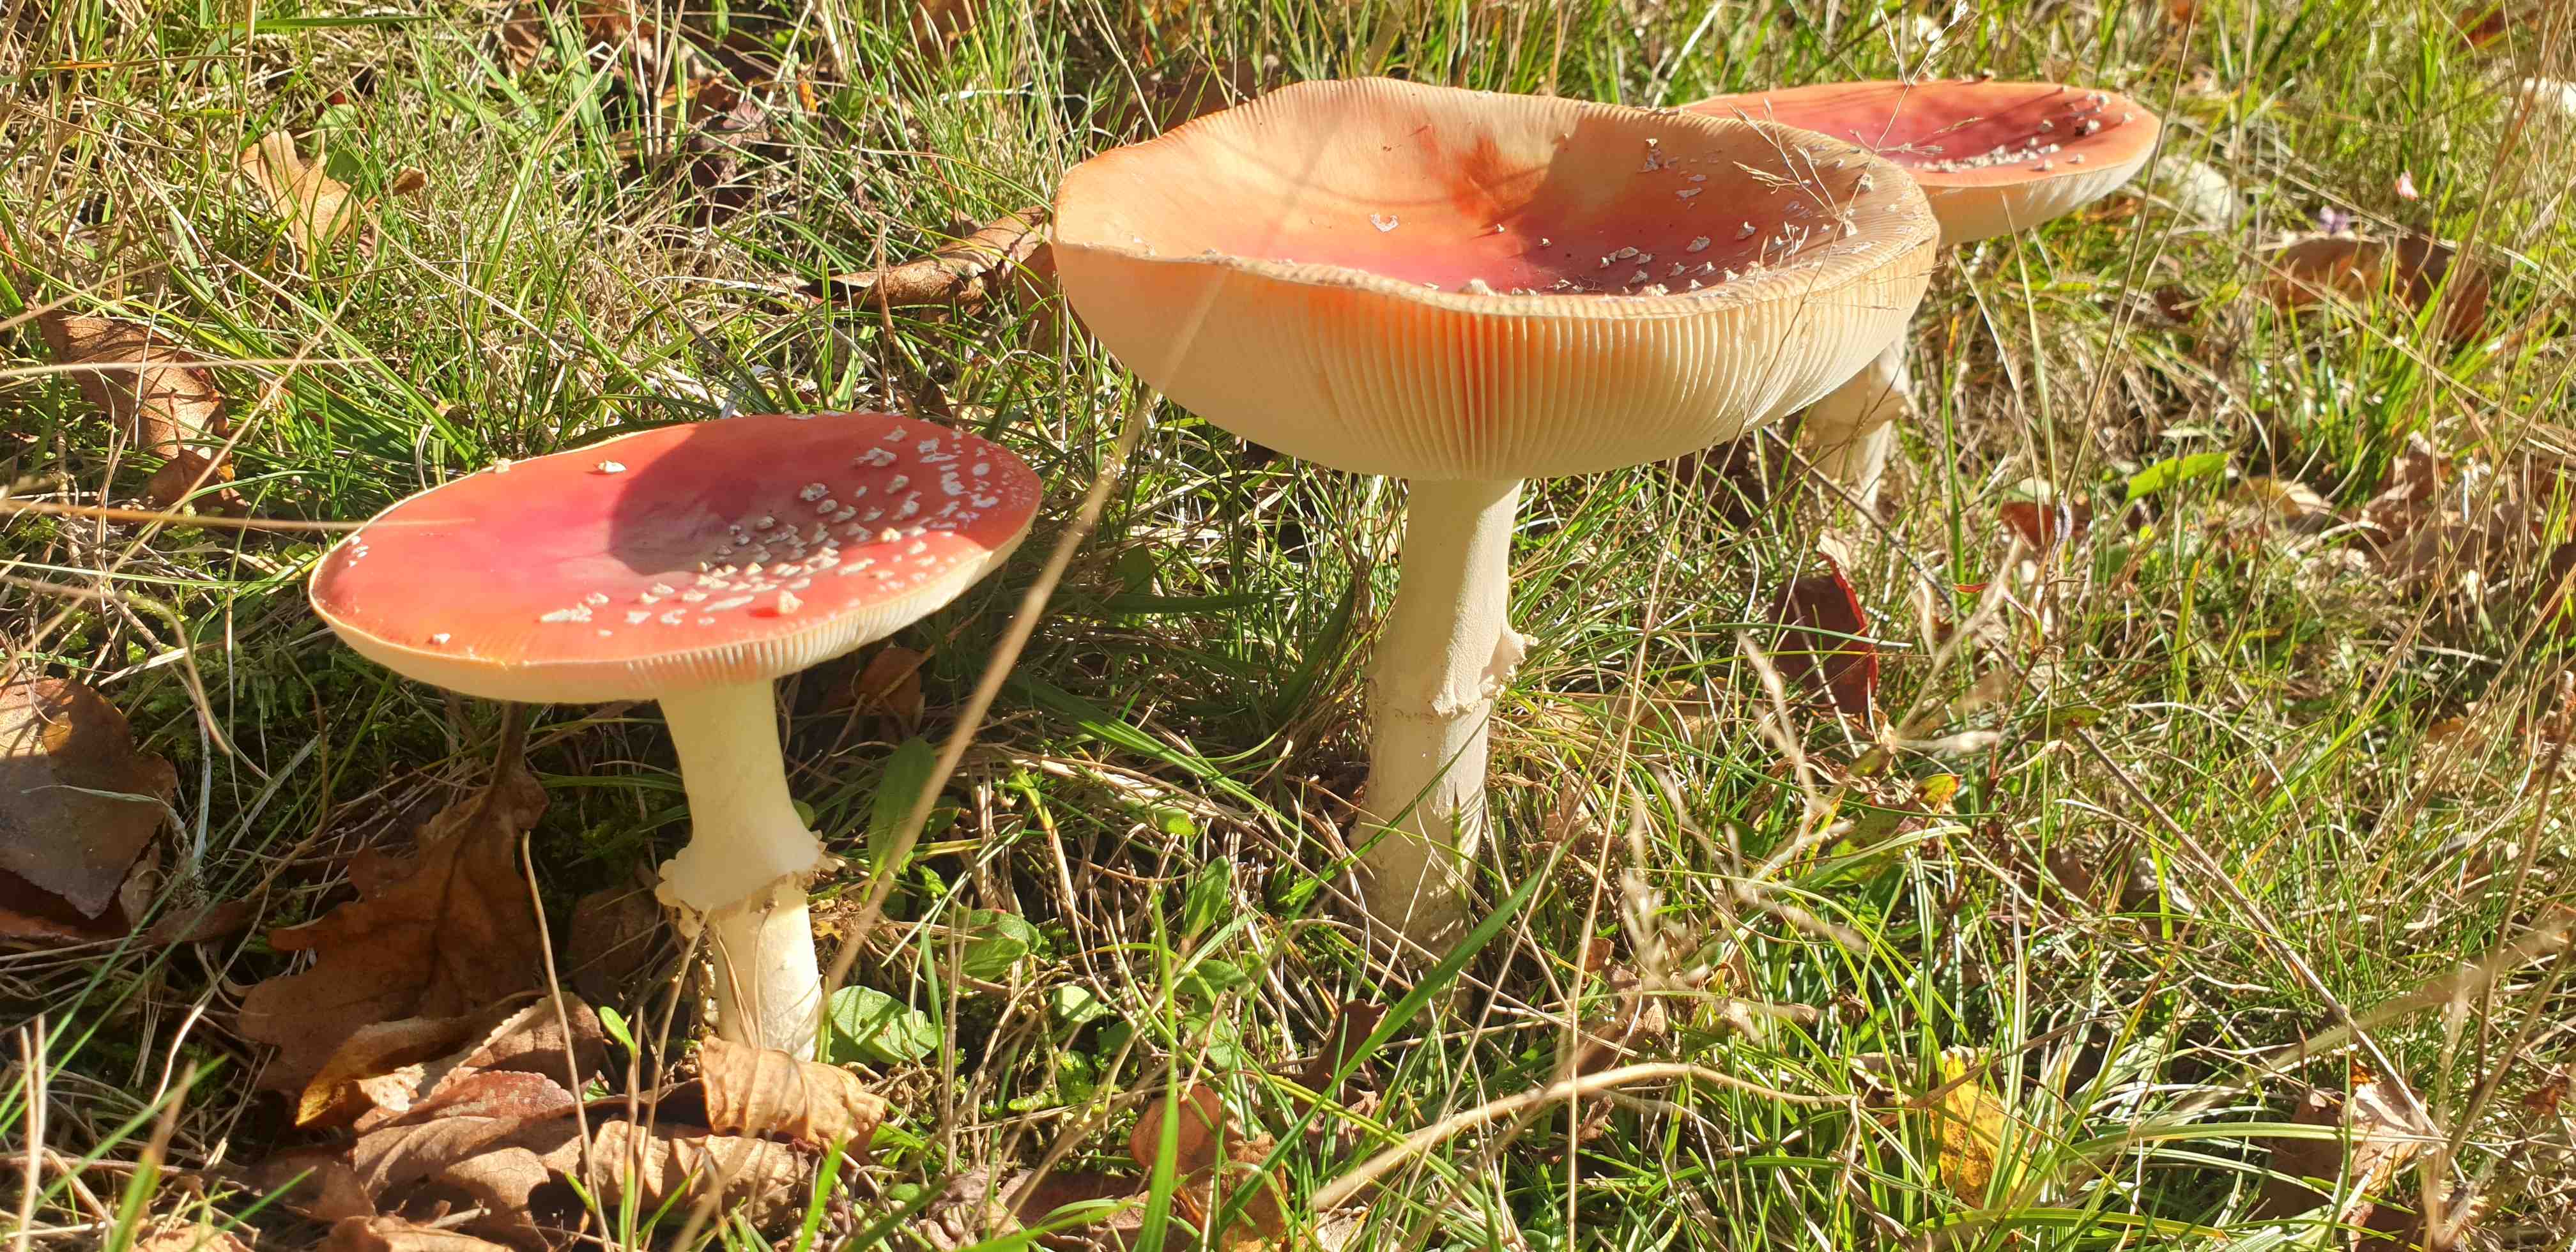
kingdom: Fungi
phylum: Basidiomycota
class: Agaricomycetes
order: Agaricales
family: Amanitaceae
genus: Amanita
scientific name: Amanita muscaria
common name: rød fluesvamp
